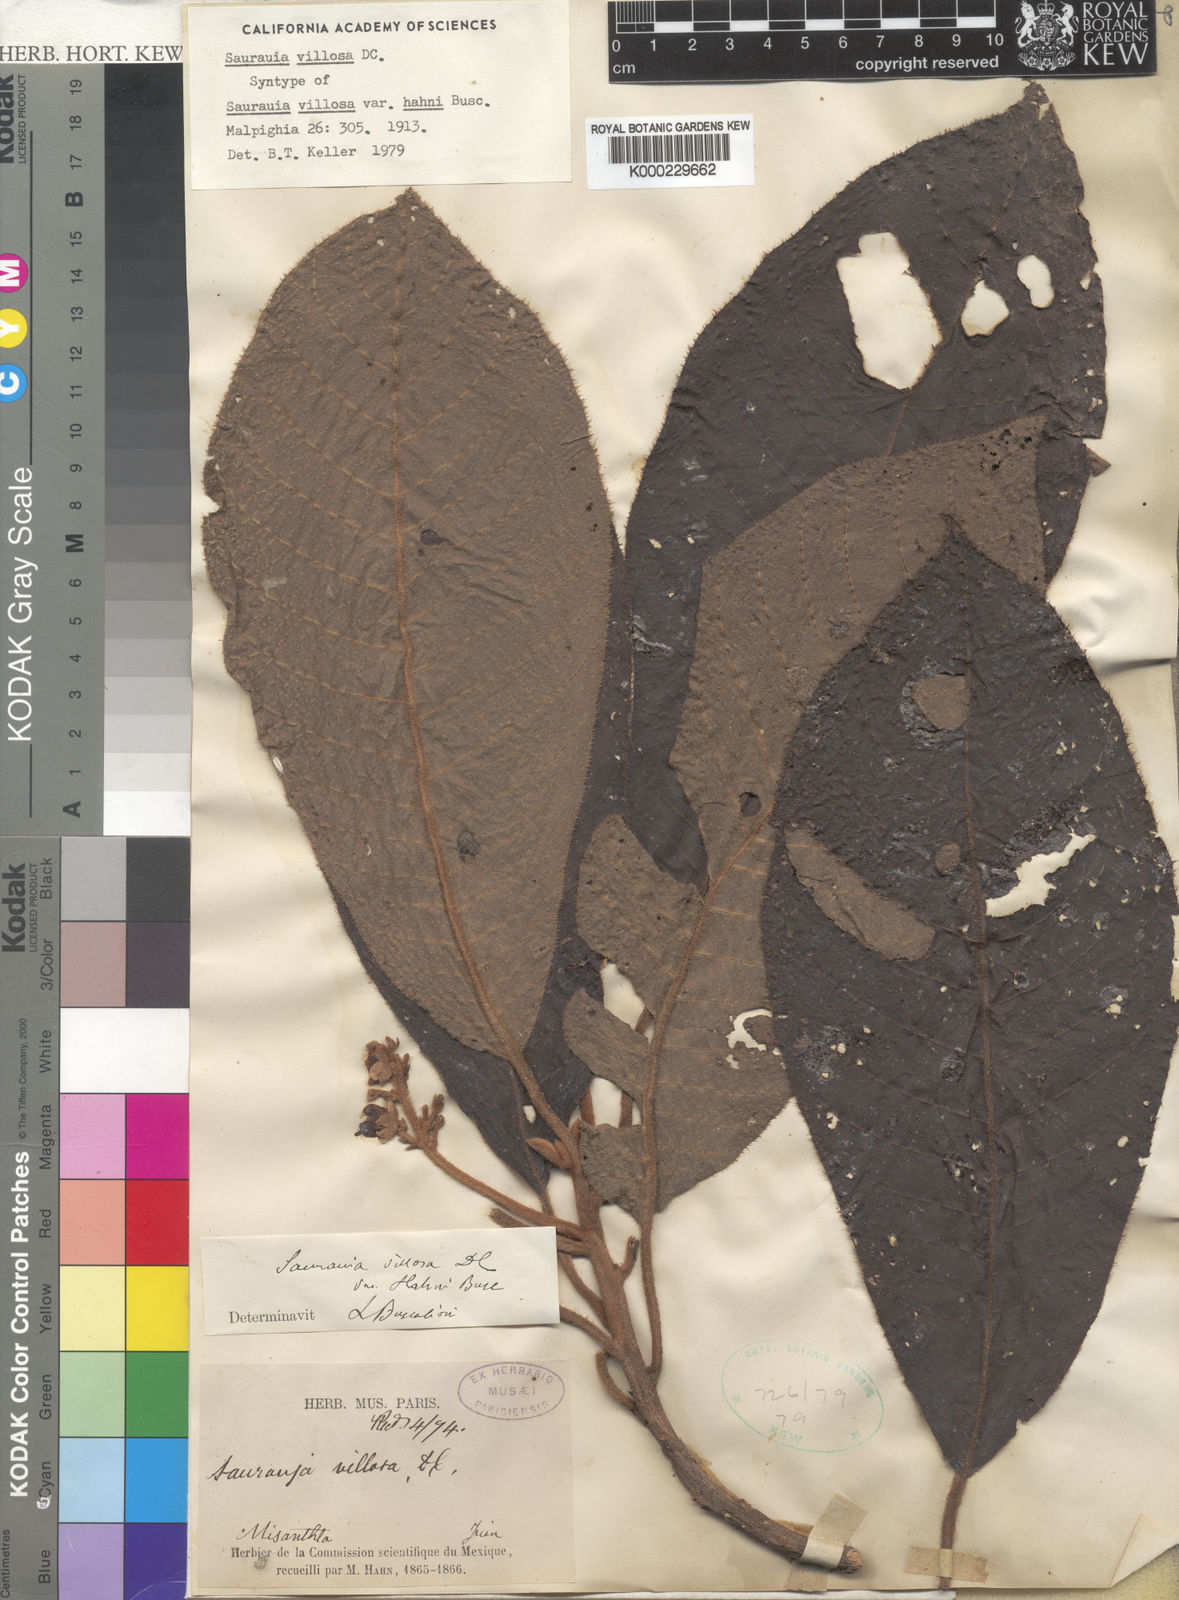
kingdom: Plantae
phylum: Tracheophyta
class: Magnoliopsida
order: Ericales
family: Actinidiaceae
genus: Saurauia
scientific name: Saurauia villosa
